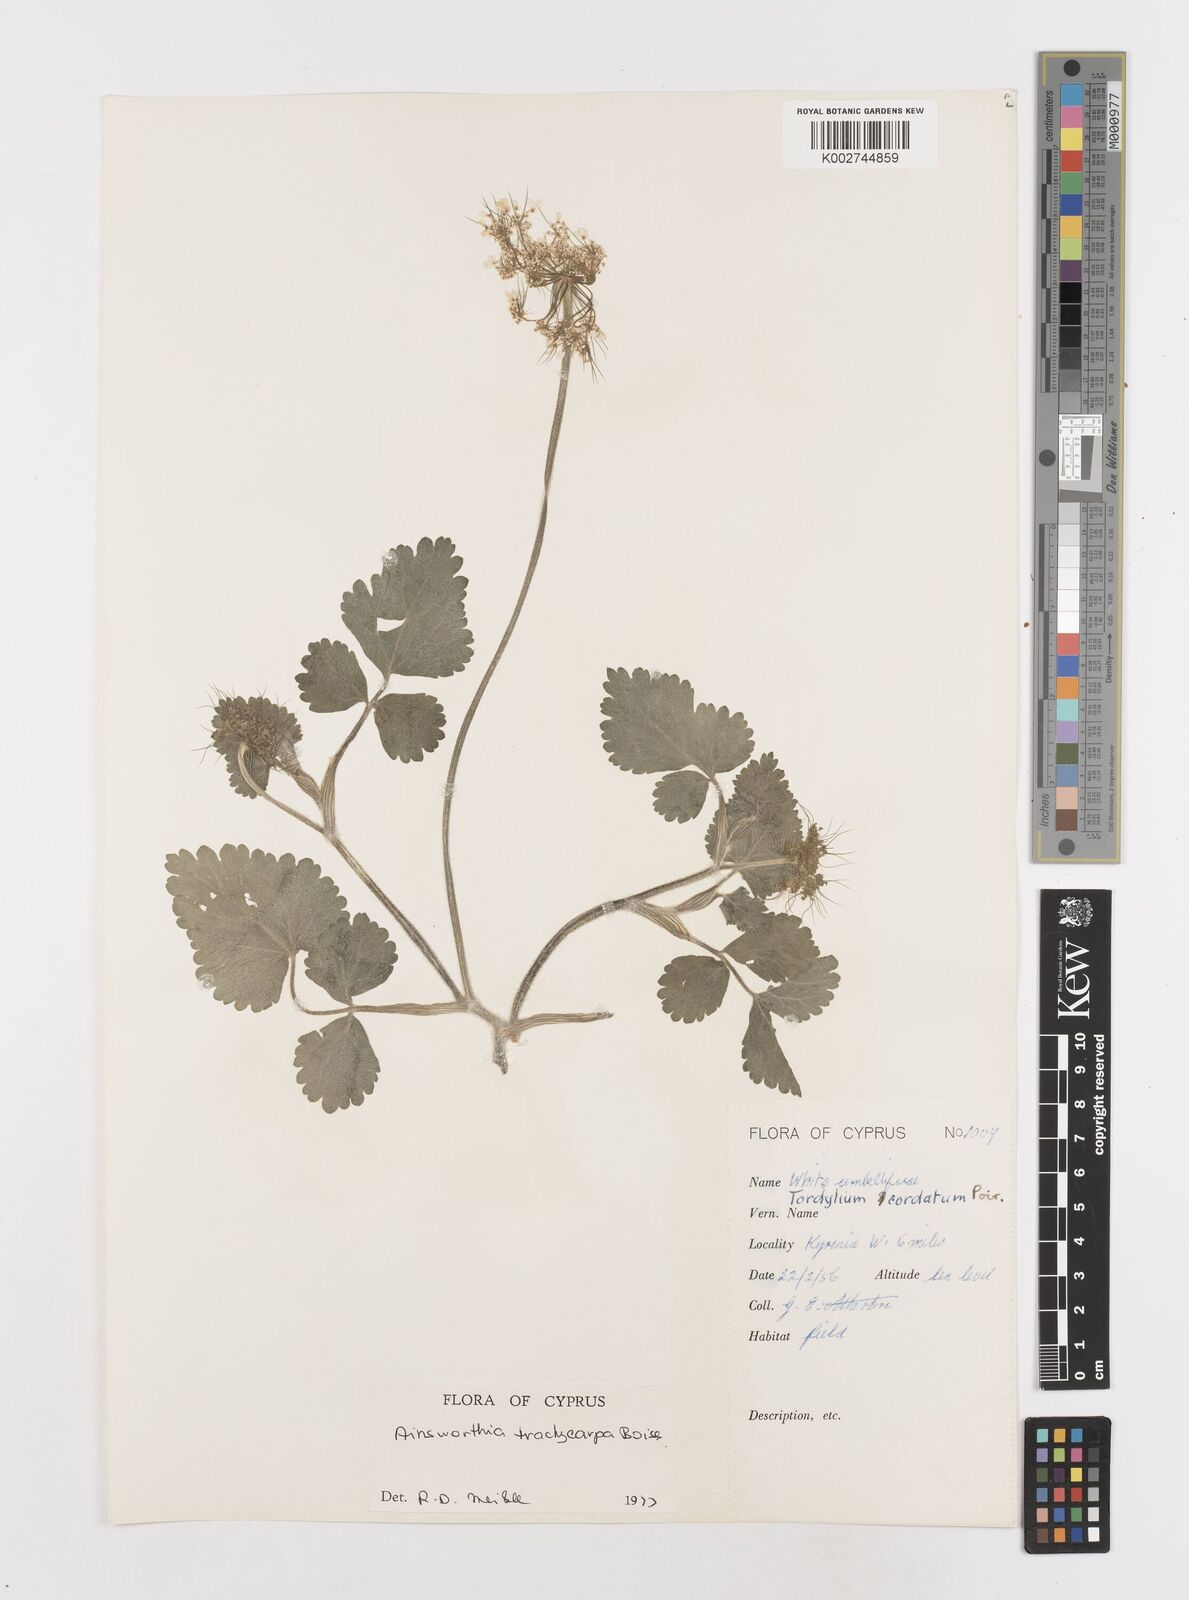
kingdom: Plantae
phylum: Tracheophyta
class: Magnoliopsida
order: Apiales
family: Apiaceae
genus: Ainsworthia
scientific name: Ainsworthia cordata
